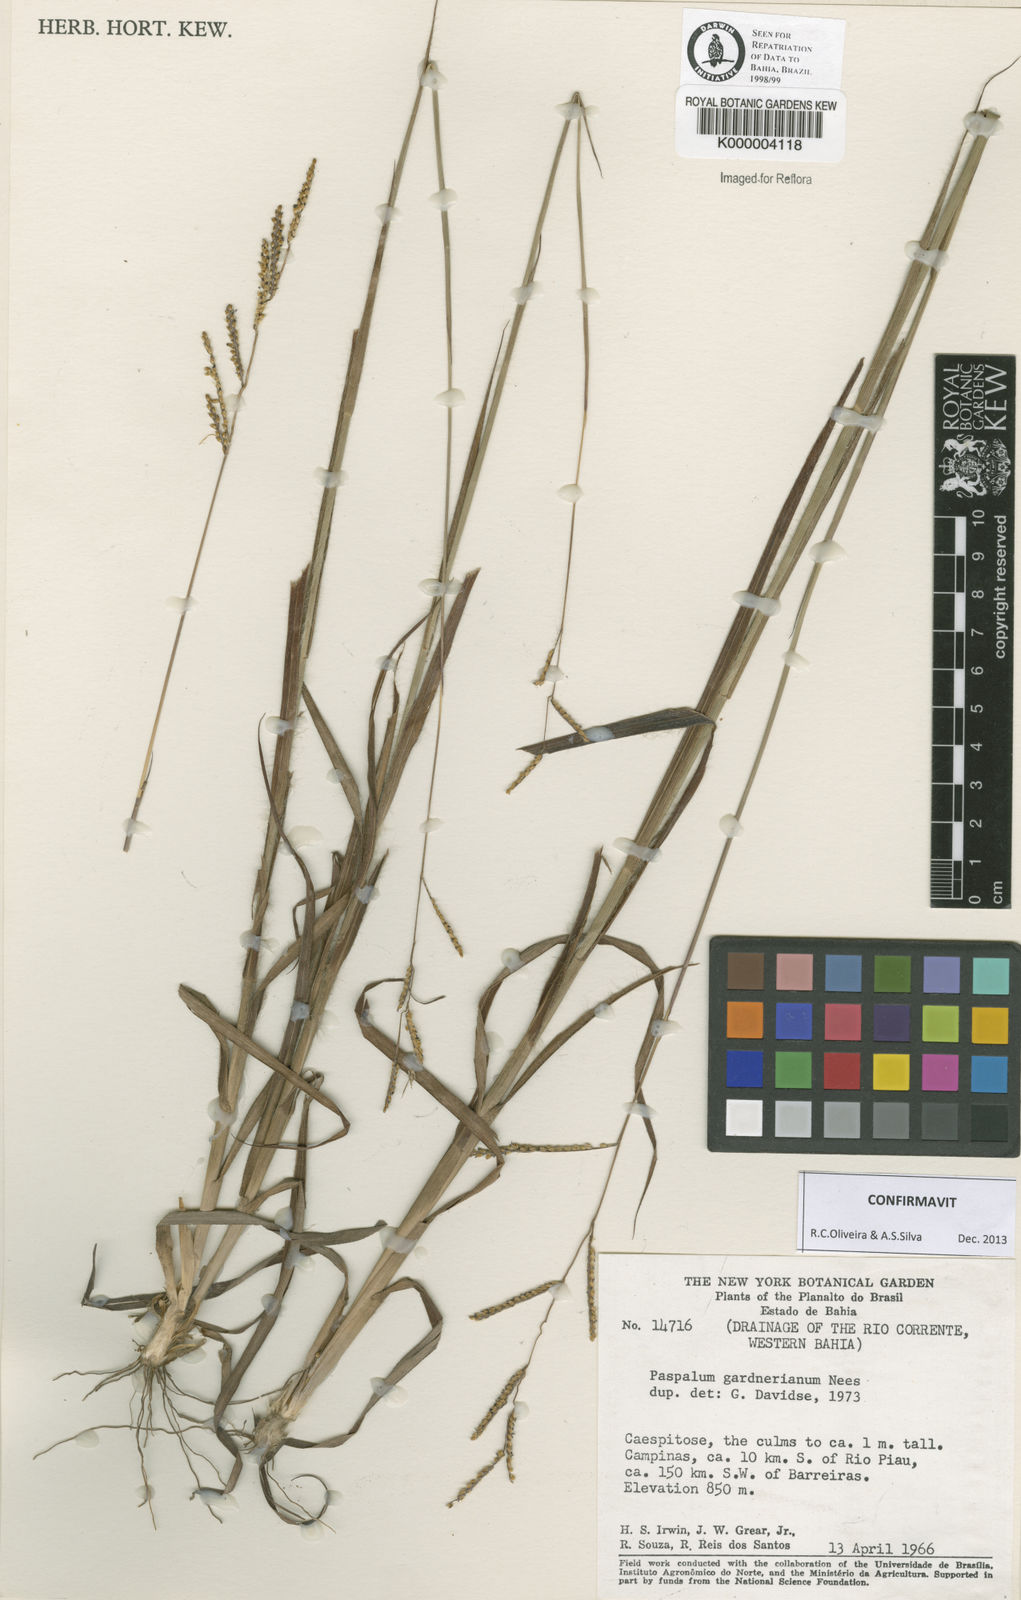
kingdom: Plantae
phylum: Tracheophyta
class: Liliopsida
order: Poales
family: Poaceae
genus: Paspalum
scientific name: Paspalum gardnerianum
